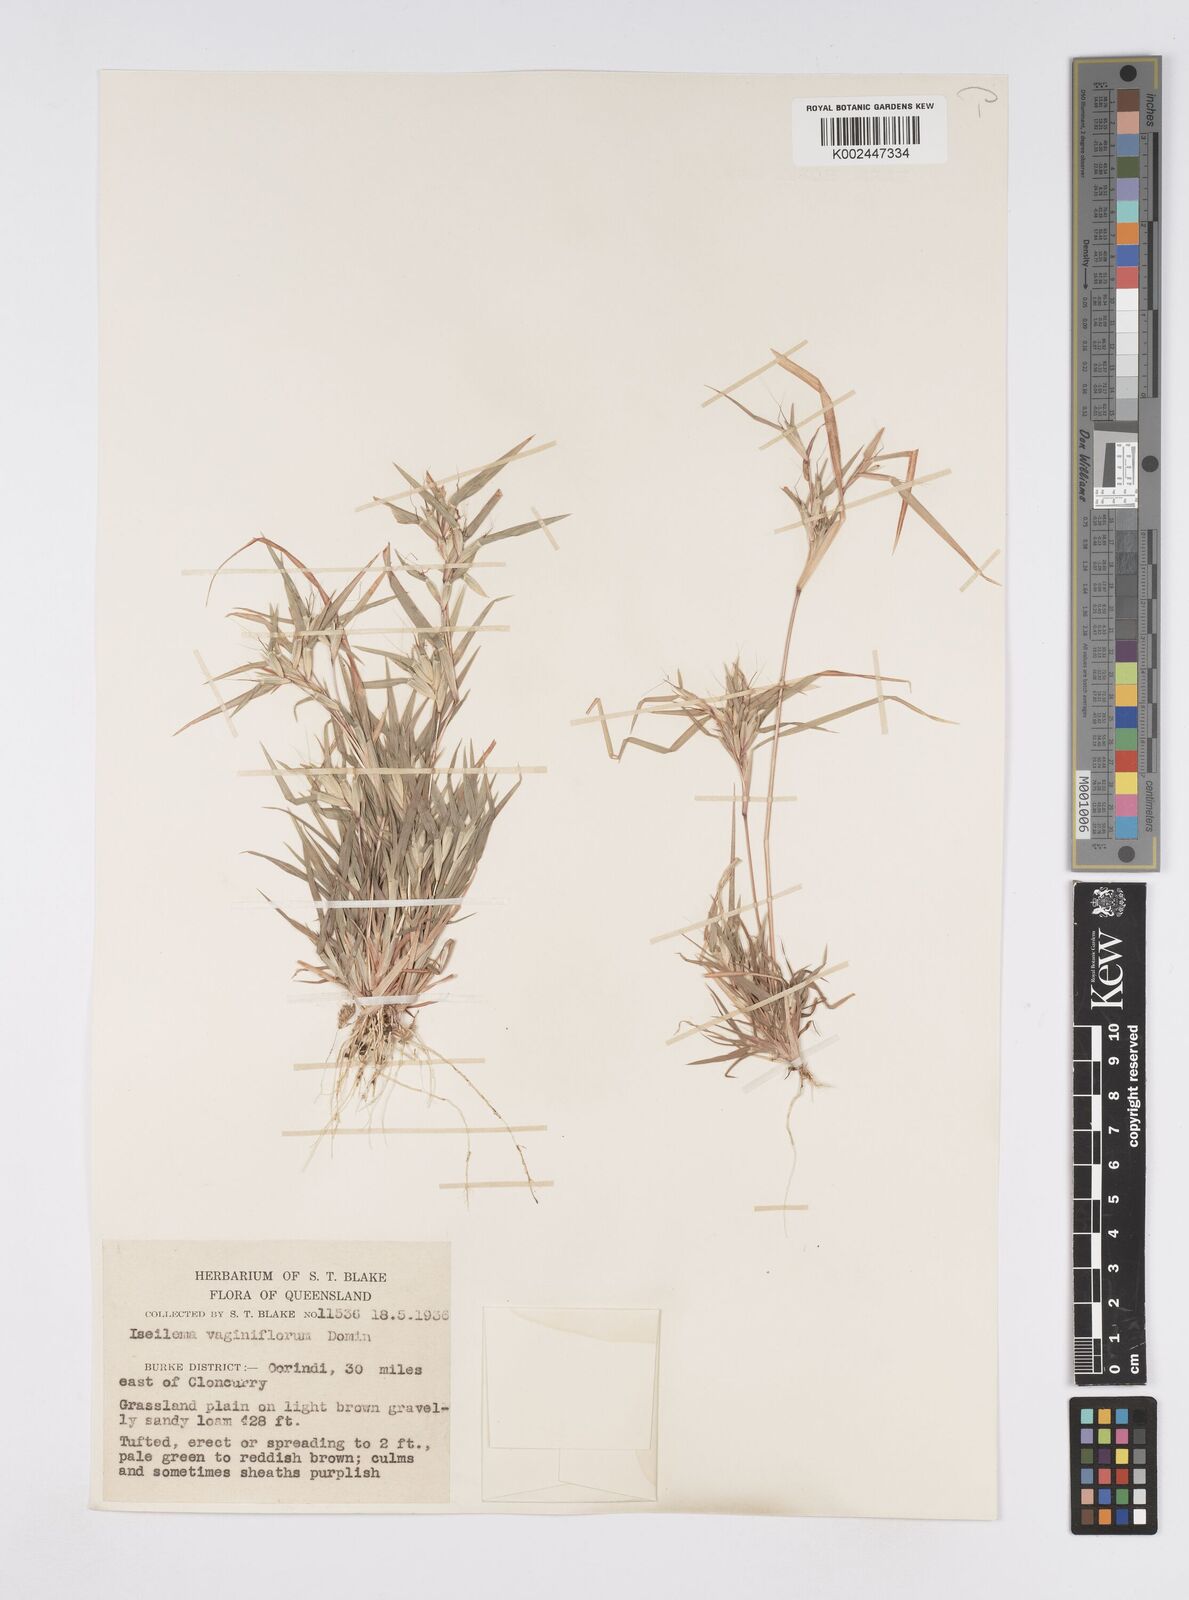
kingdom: Plantae
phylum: Tracheophyta
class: Liliopsida
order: Poales
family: Poaceae
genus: Iseilema
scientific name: Iseilema vaginiflorum
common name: Red flinders grass
